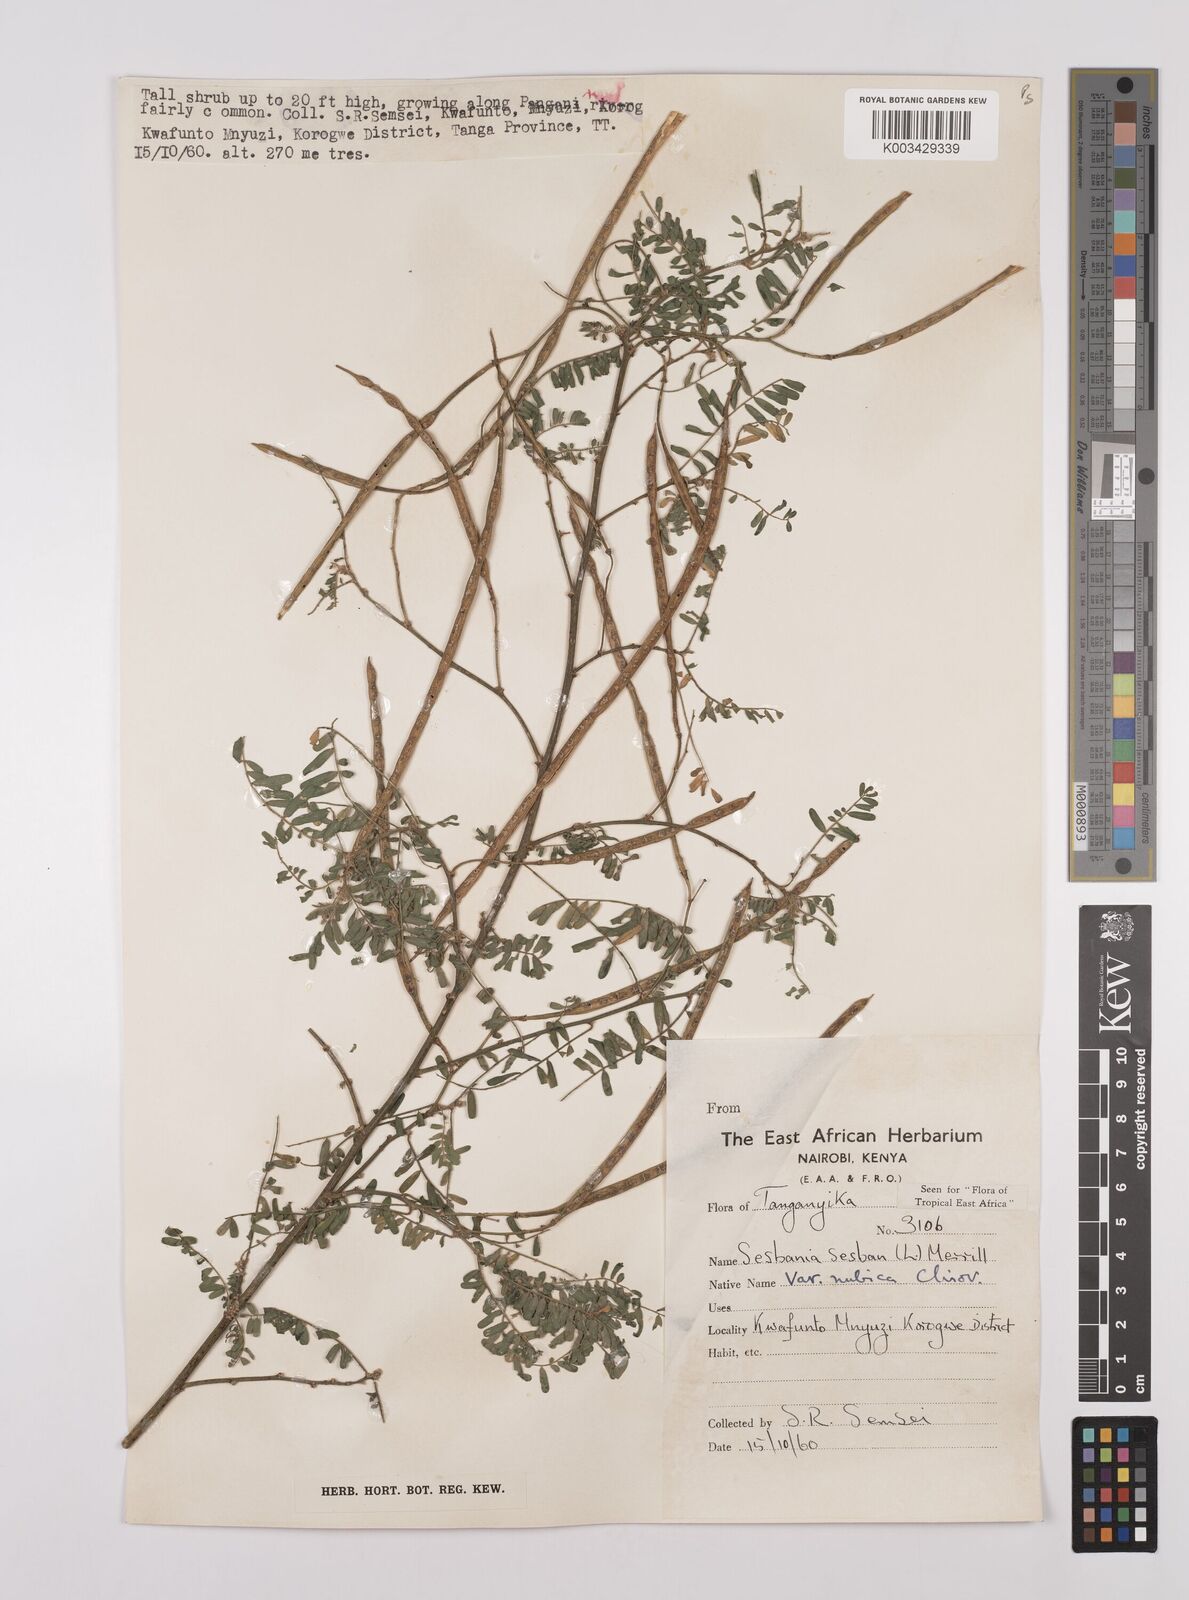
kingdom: Plantae
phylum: Tracheophyta
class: Magnoliopsida
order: Fabales
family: Fabaceae
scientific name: Fabaceae
